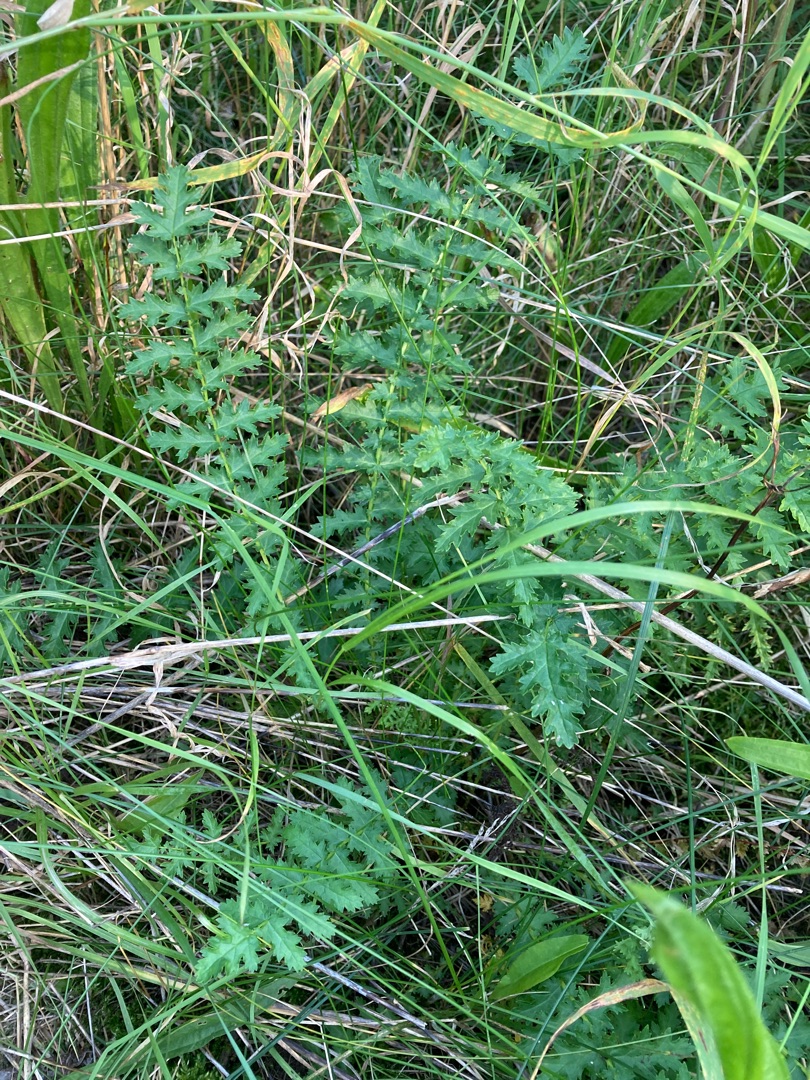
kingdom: Plantae
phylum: Tracheophyta
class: Magnoliopsida
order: Rosales
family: Rosaceae
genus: Filipendula
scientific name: Filipendula vulgaris
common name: Knoldet mjødurt
